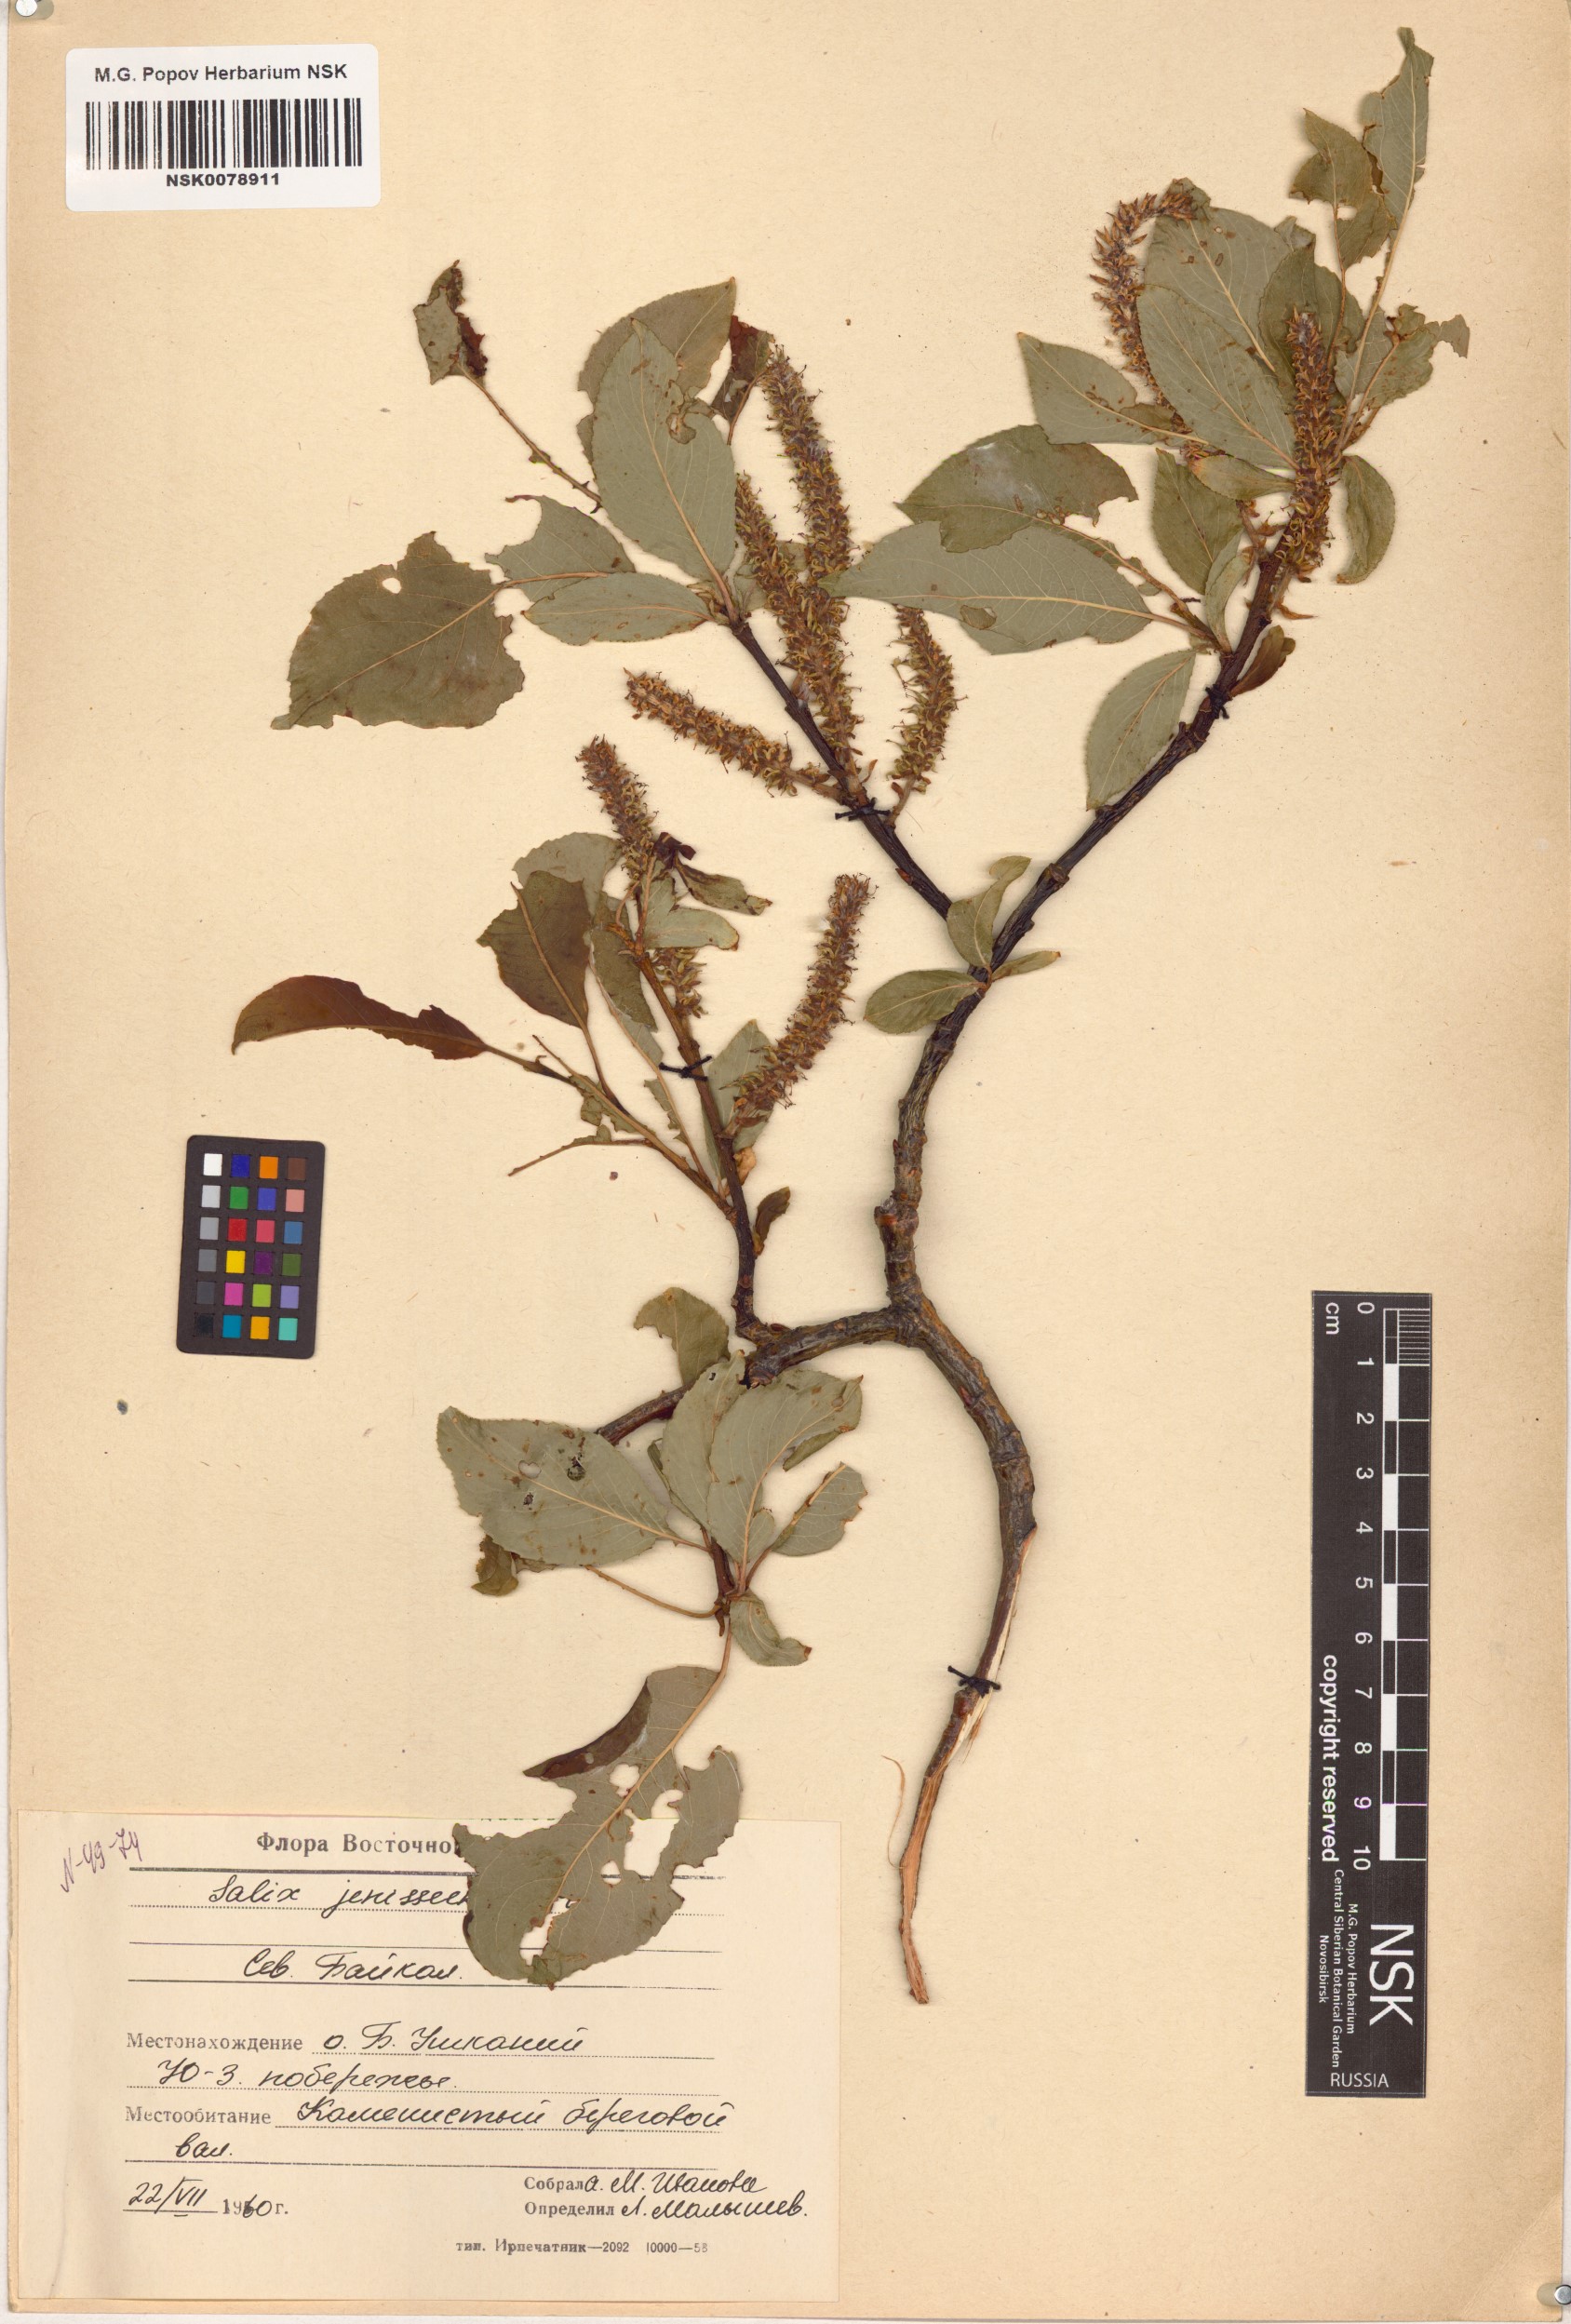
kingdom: Plantae
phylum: Tracheophyta
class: Magnoliopsida
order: Malpighiales
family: Salicaceae
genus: Salix
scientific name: Salix jenisseensis
